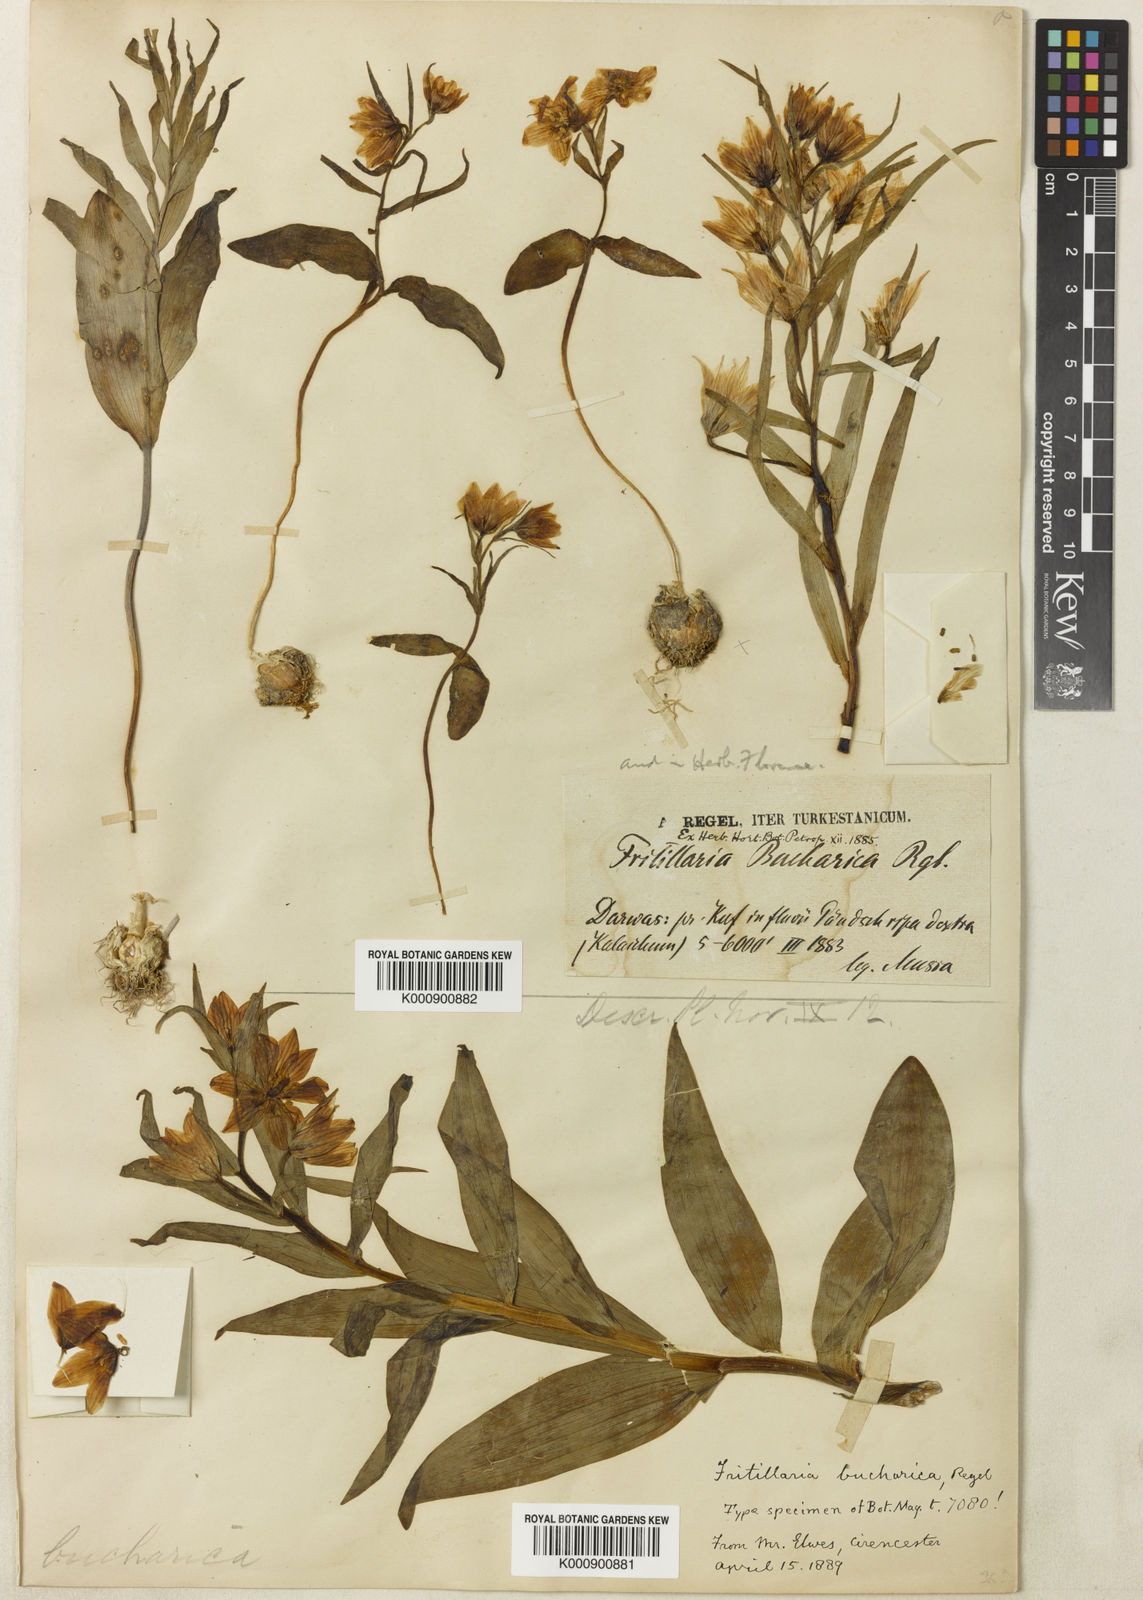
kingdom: Plantae
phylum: Tracheophyta
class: Liliopsida
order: Liliales
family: Liliaceae
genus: Fritillaria
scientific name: Fritillaria bucharica
